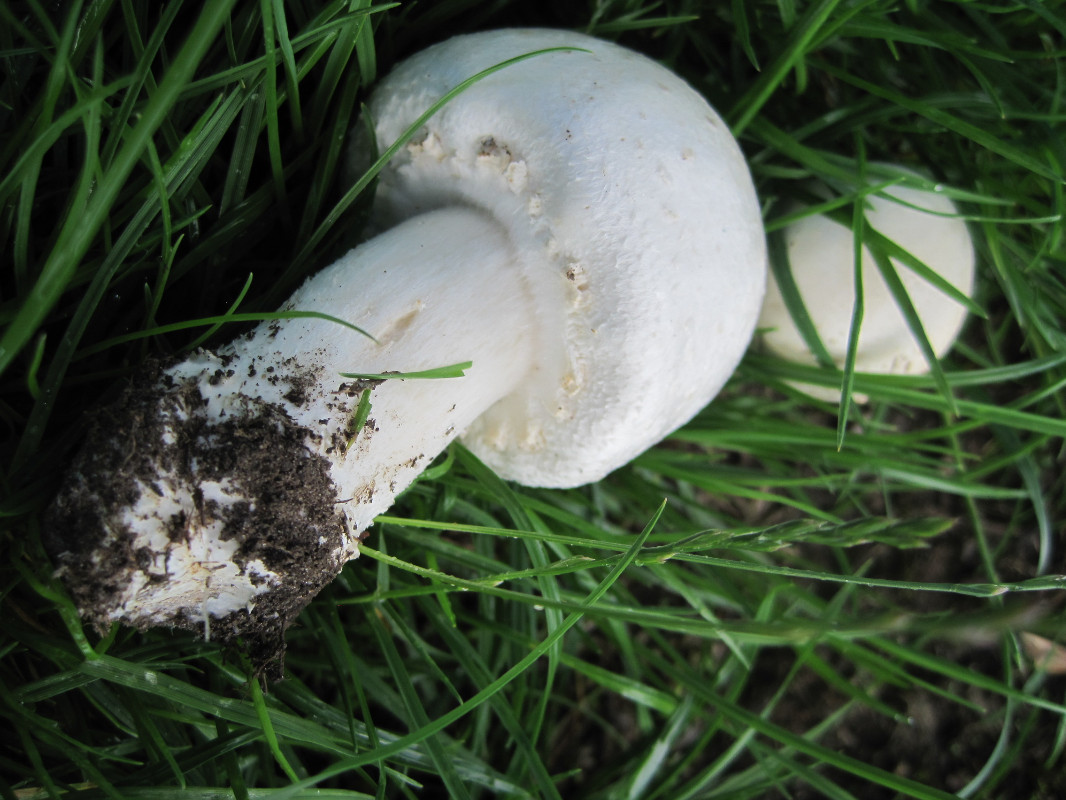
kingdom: Fungi
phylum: Basidiomycota
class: Agaricomycetes
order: Agaricales
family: Agaricaceae
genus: Agaricus
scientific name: Agaricus arvensis
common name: ager-champignon
